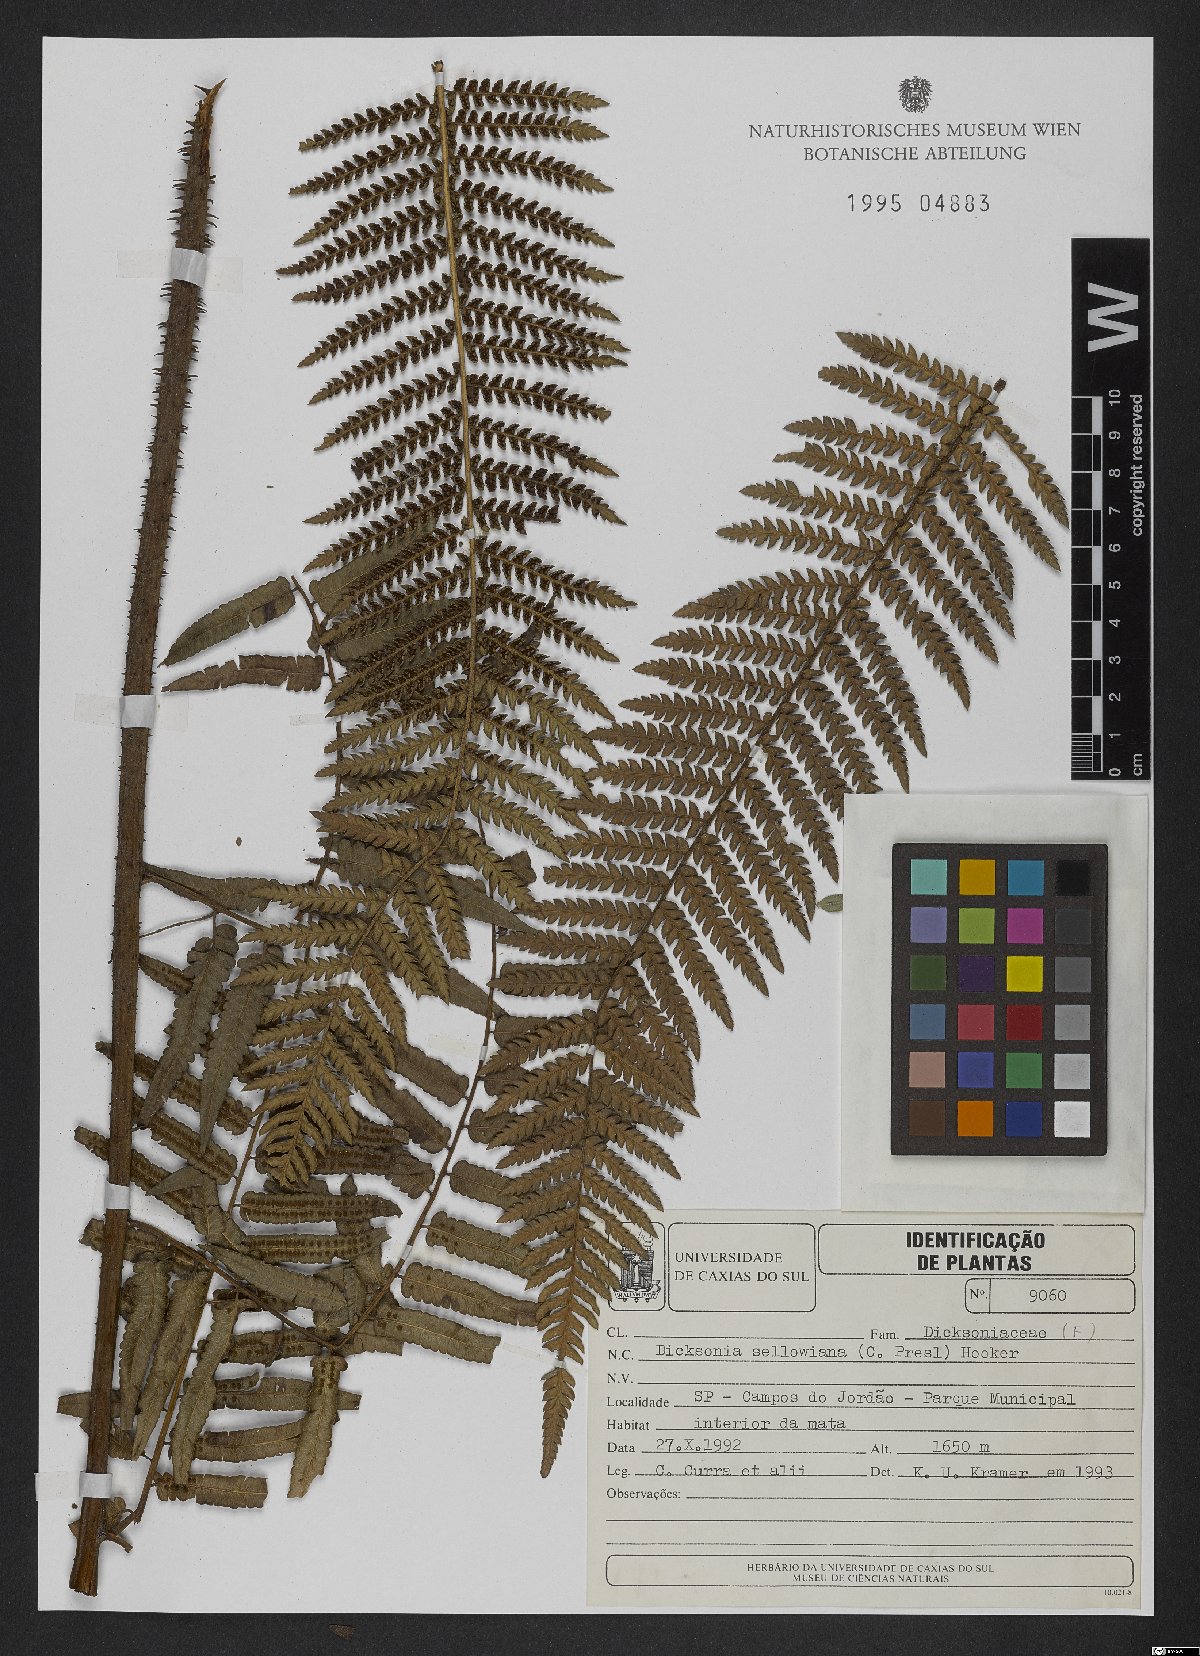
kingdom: Plantae
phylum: Tracheophyta
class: Polypodiopsida
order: Cyatheales
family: Dicksoniaceae
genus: Dicksonia
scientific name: Dicksonia sellowiana
